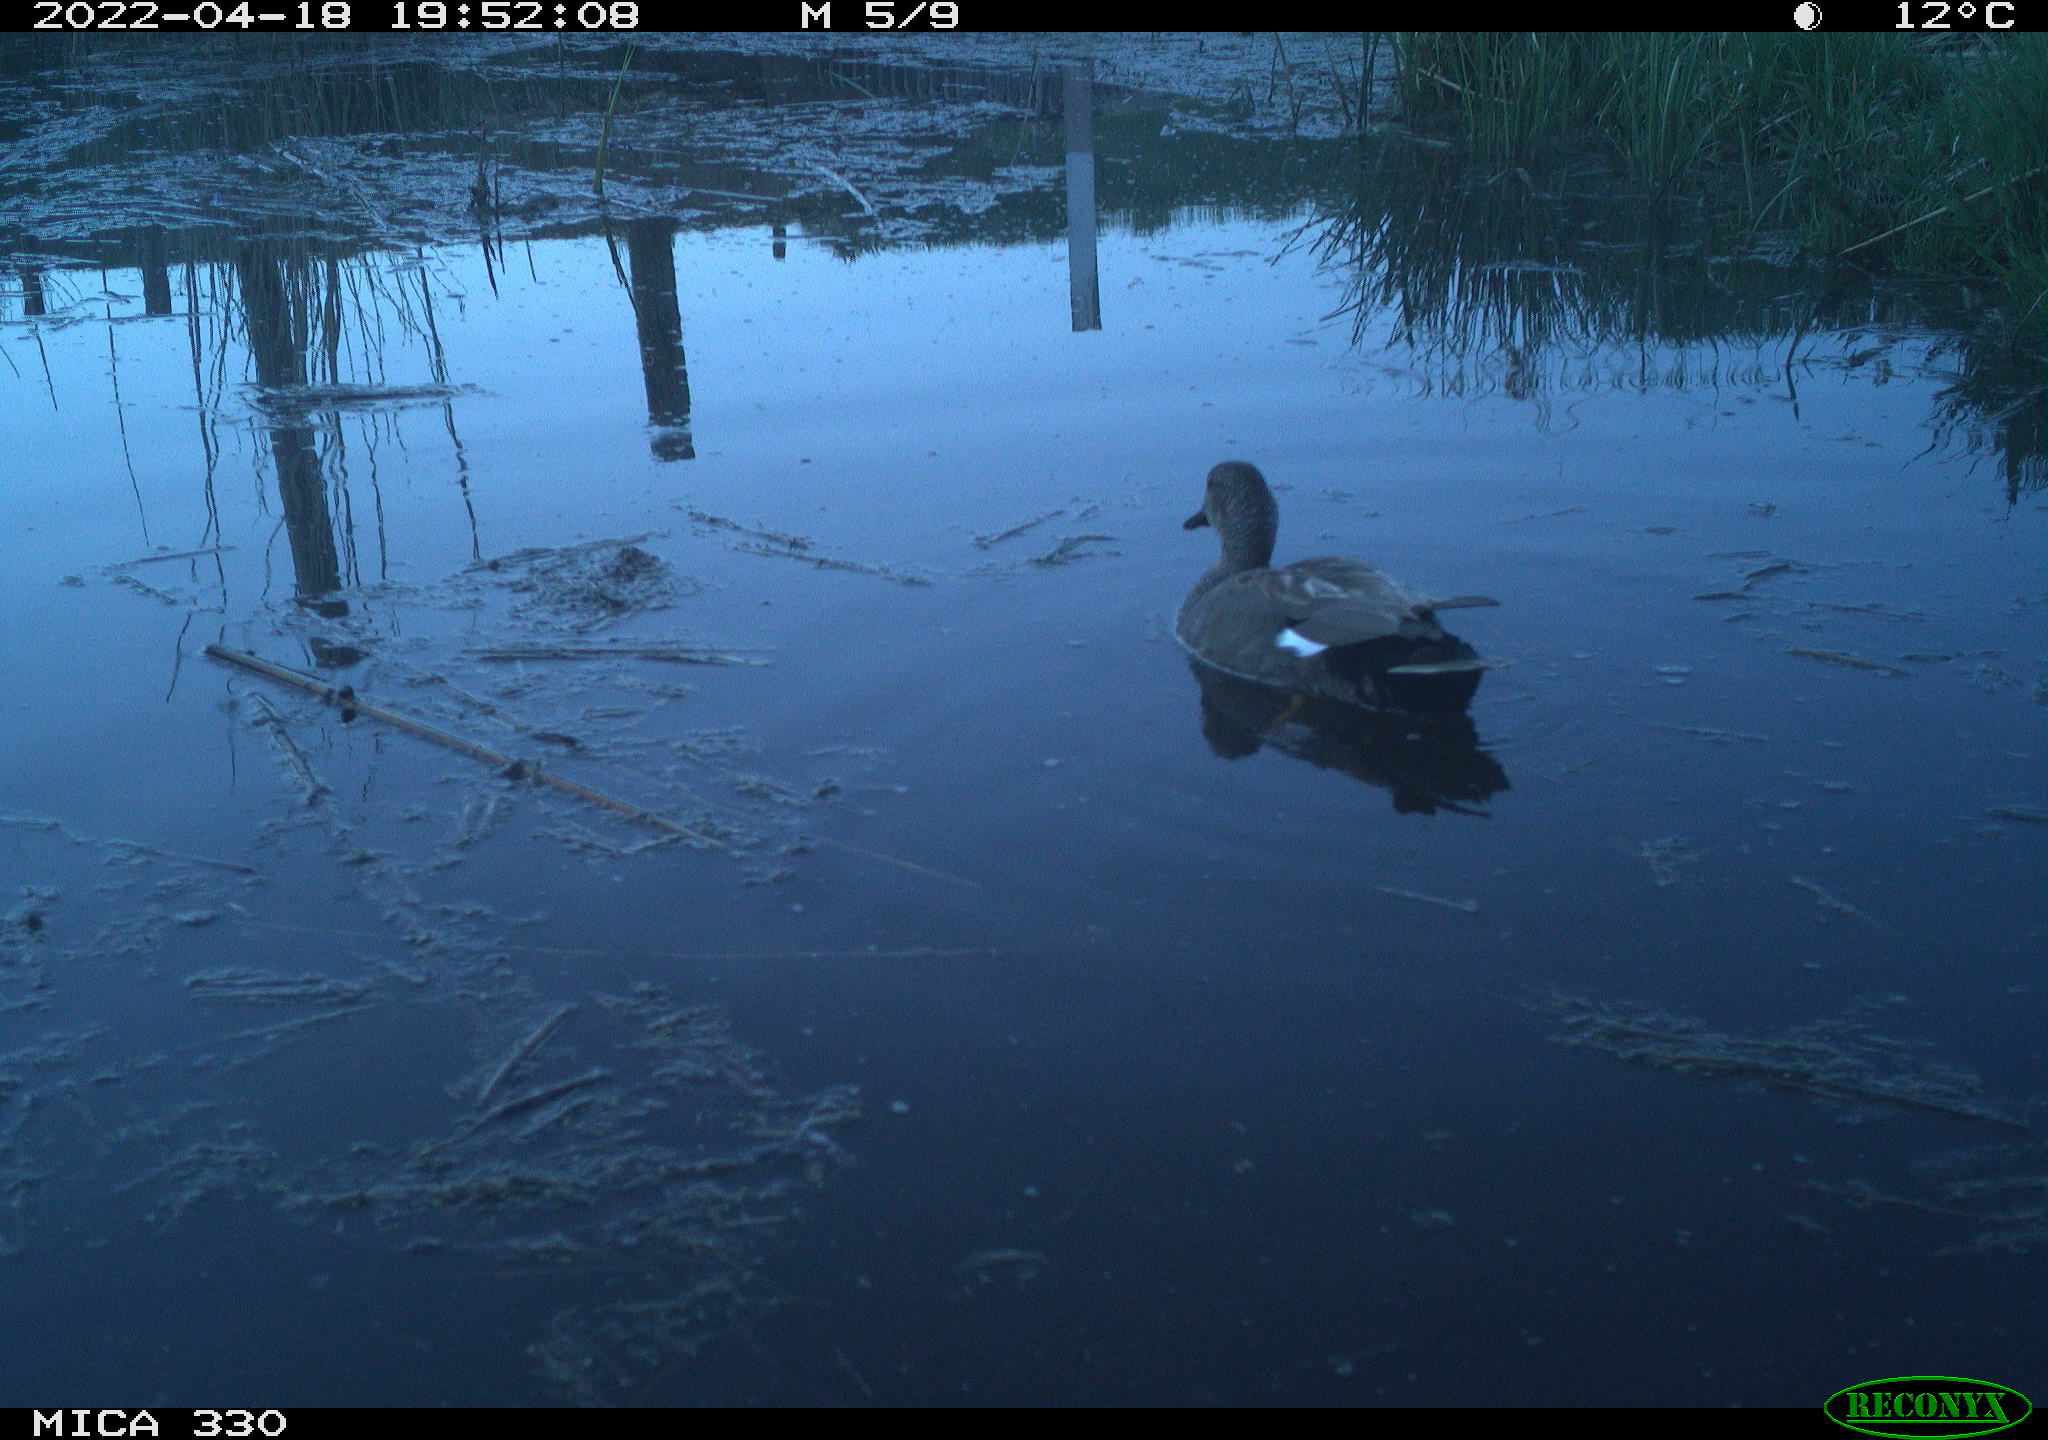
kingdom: Animalia
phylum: Chordata
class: Aves
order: Anseriformes
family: Anatidae
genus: Mareca
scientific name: Mareca strepera
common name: Gadwall
